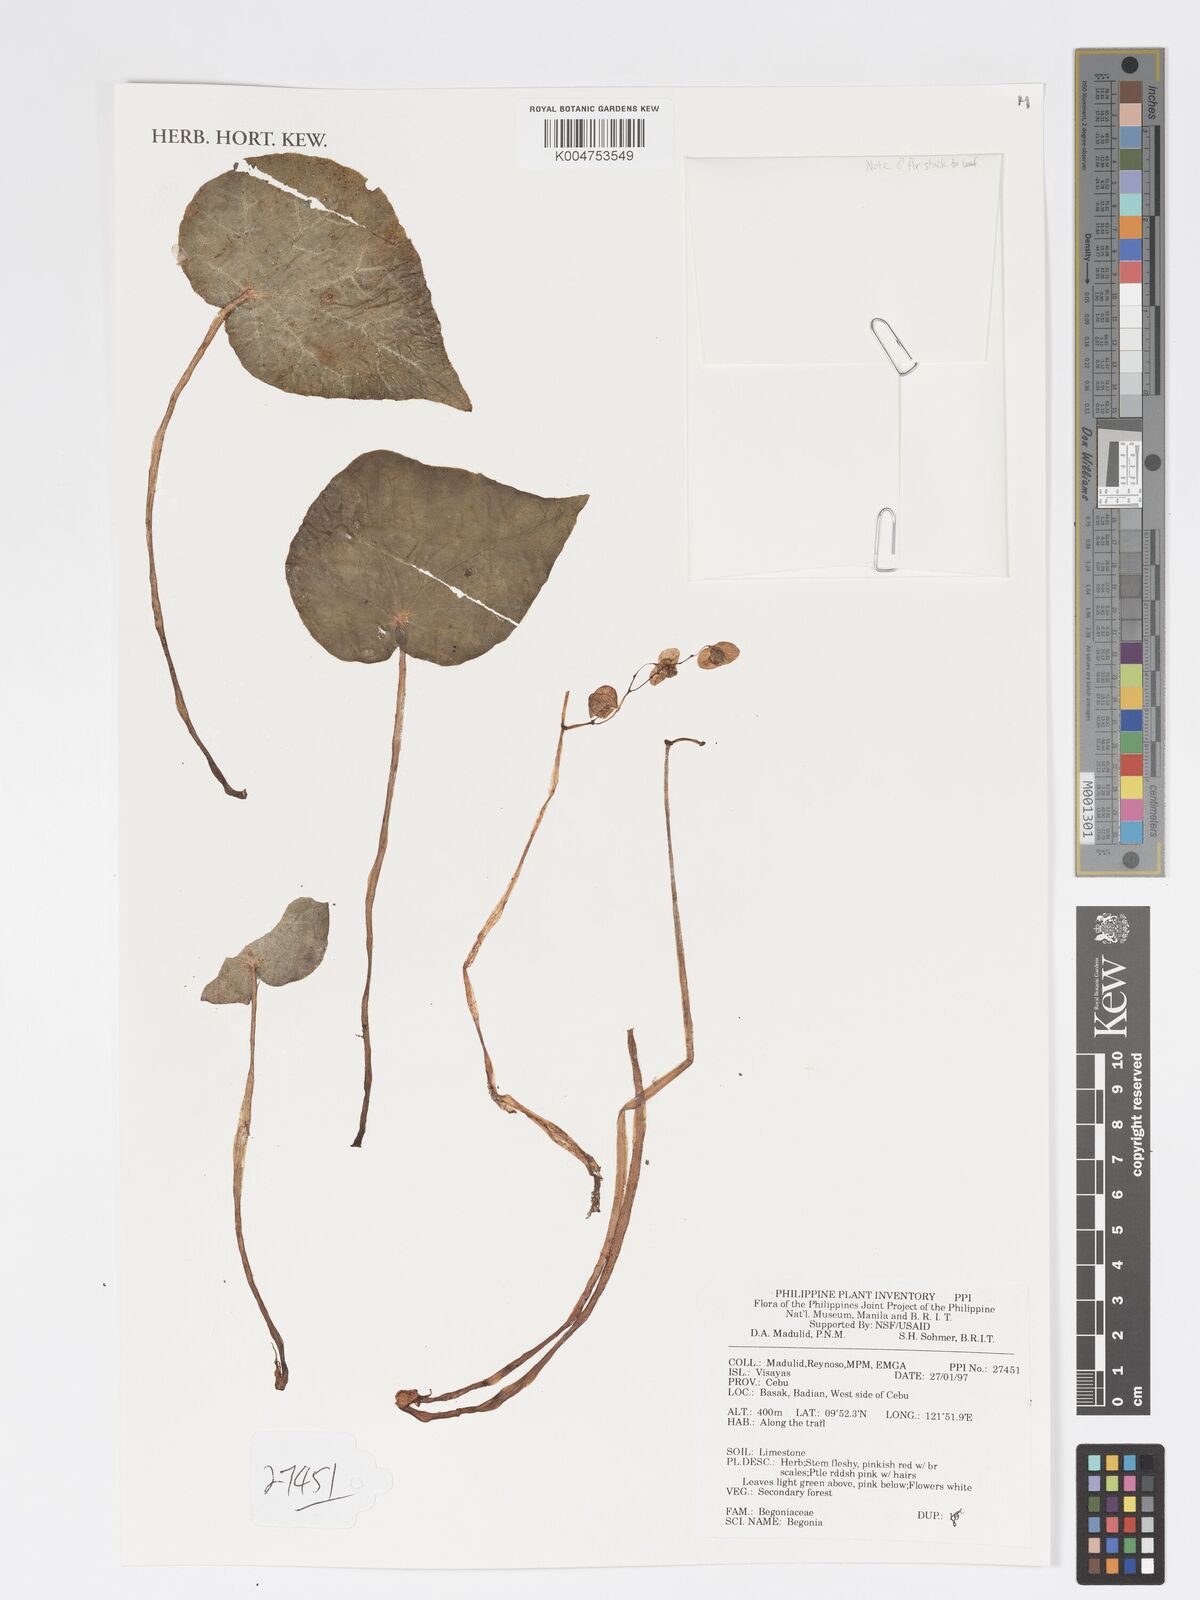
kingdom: Plantae
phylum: Tracheophyta
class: Magnoliopsida
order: Cucurbitales
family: Begoniaceae
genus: Begonia
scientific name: Begonia
